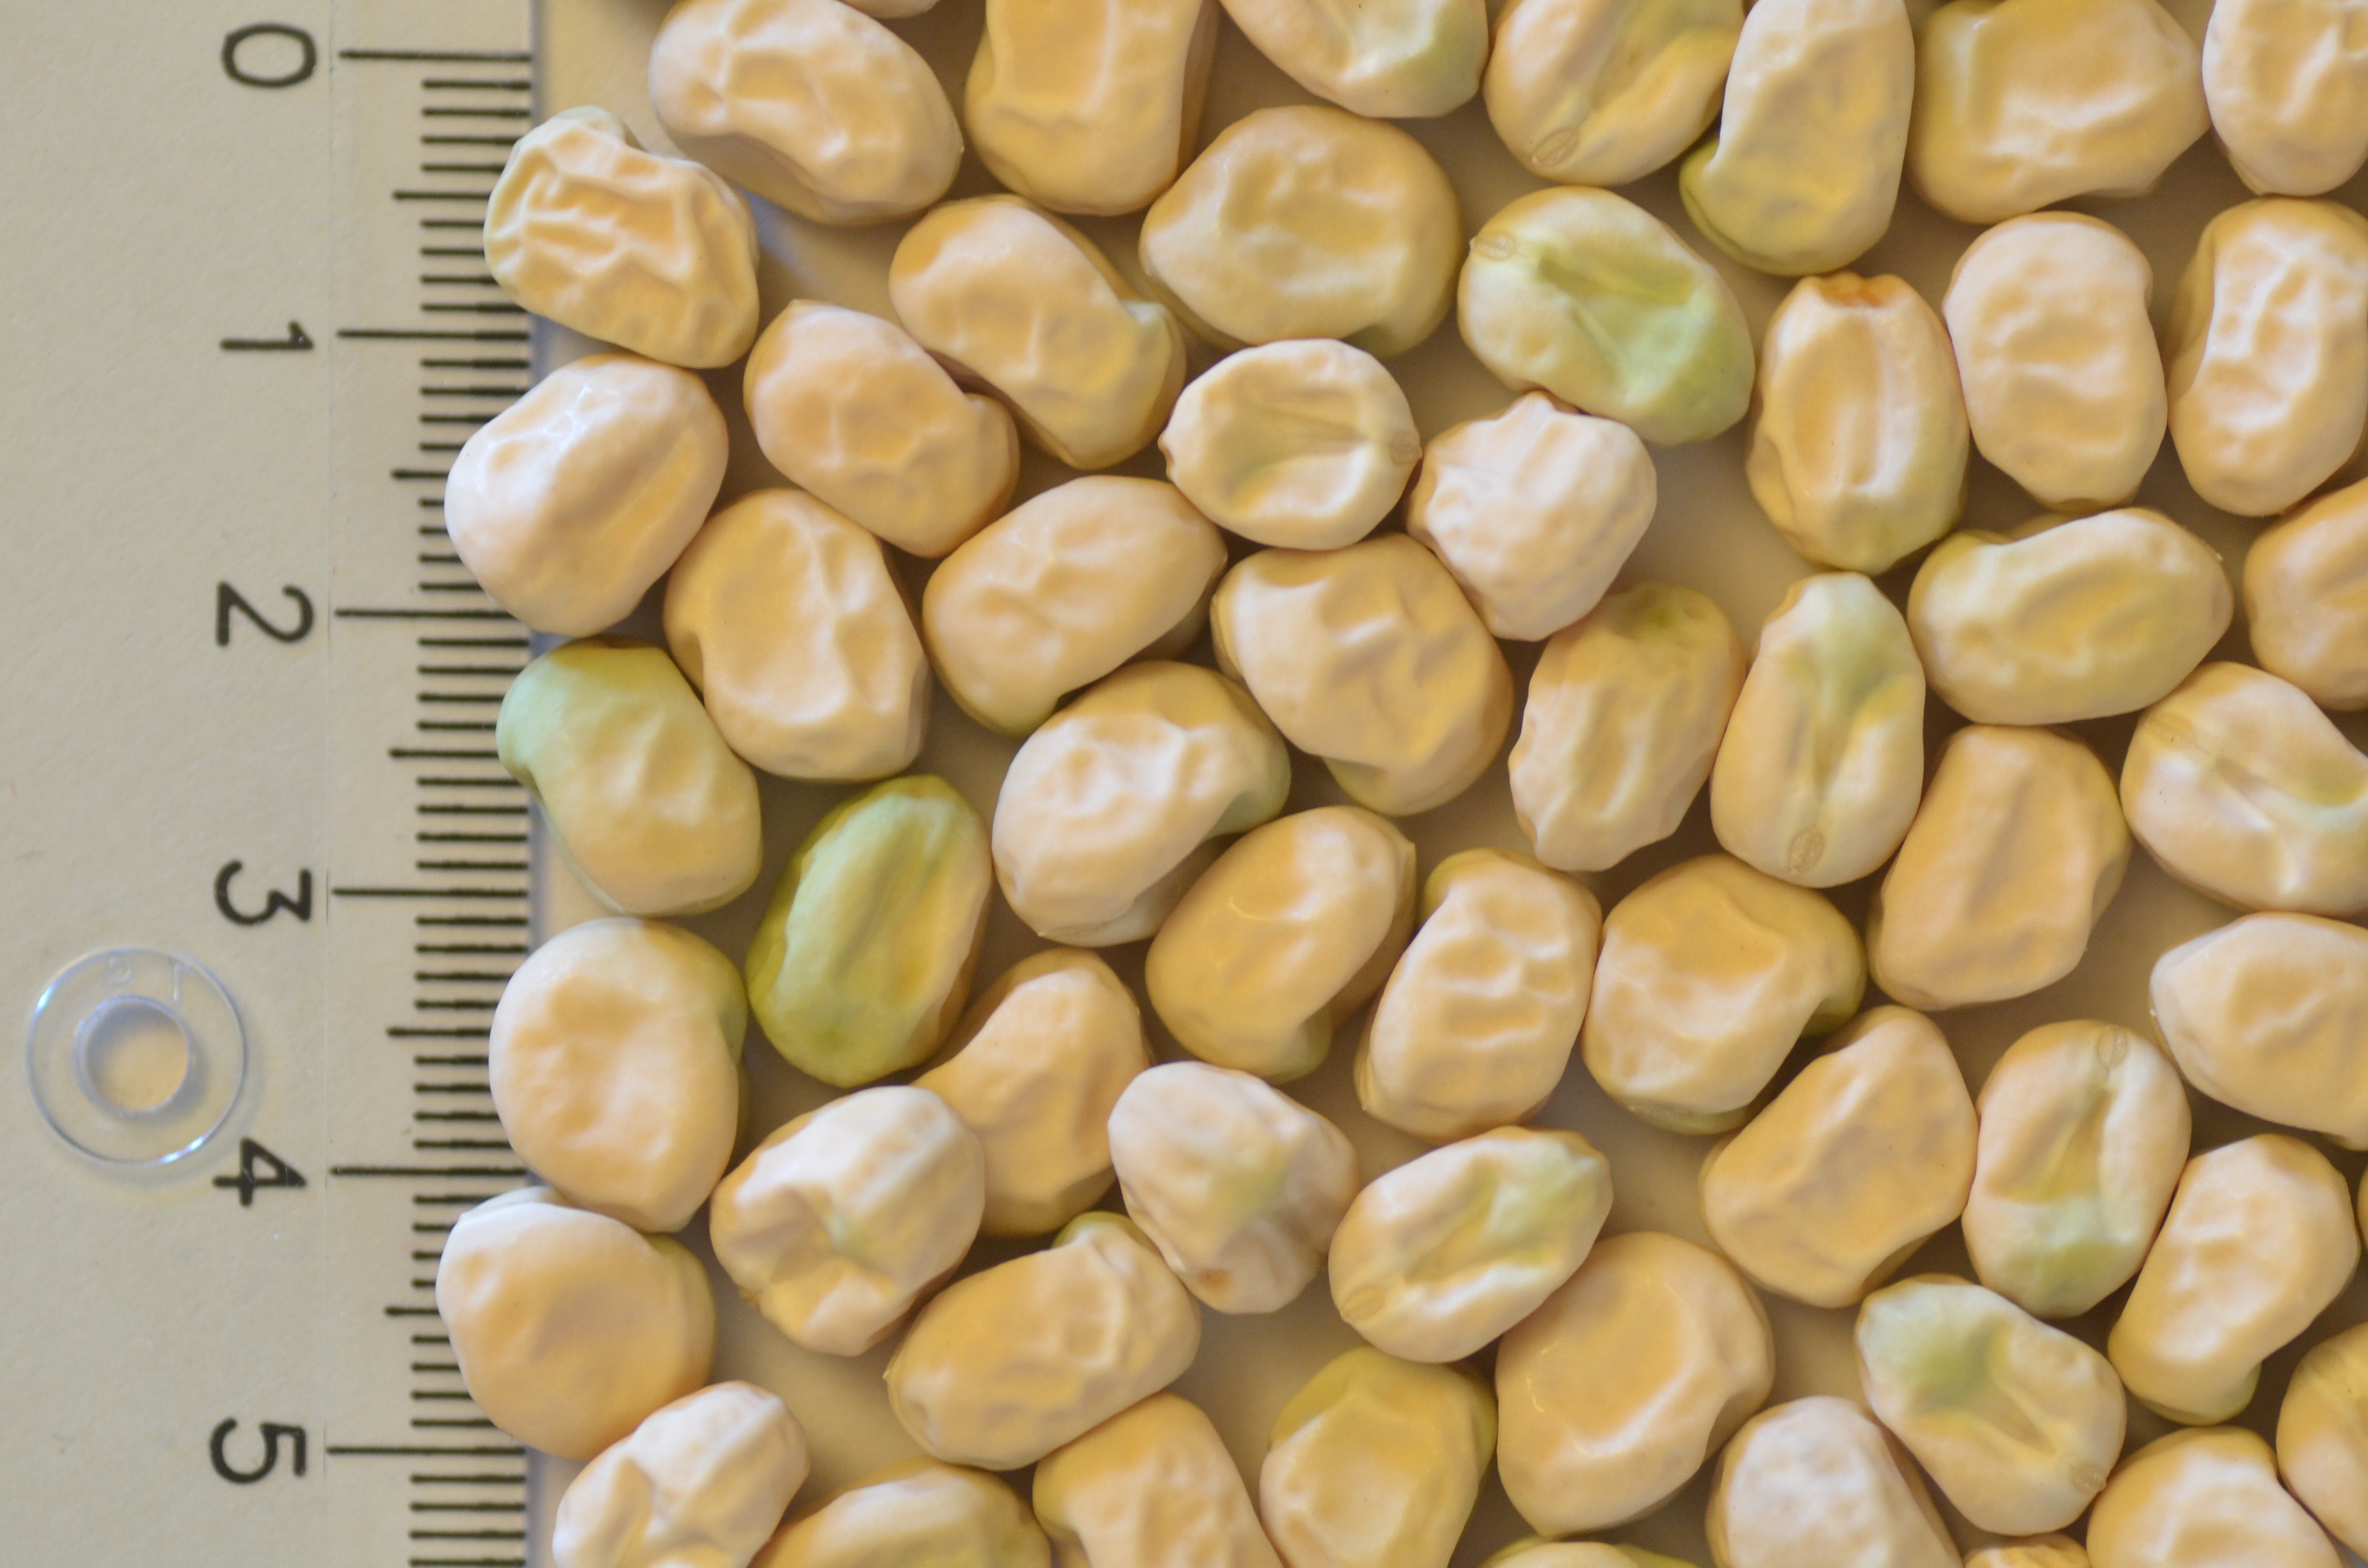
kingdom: Plantae
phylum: Tracheophyta
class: Magnoliopsida
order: Fabales
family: Fabaceae
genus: Lathyrus
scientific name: Lathyrus oleraceus
